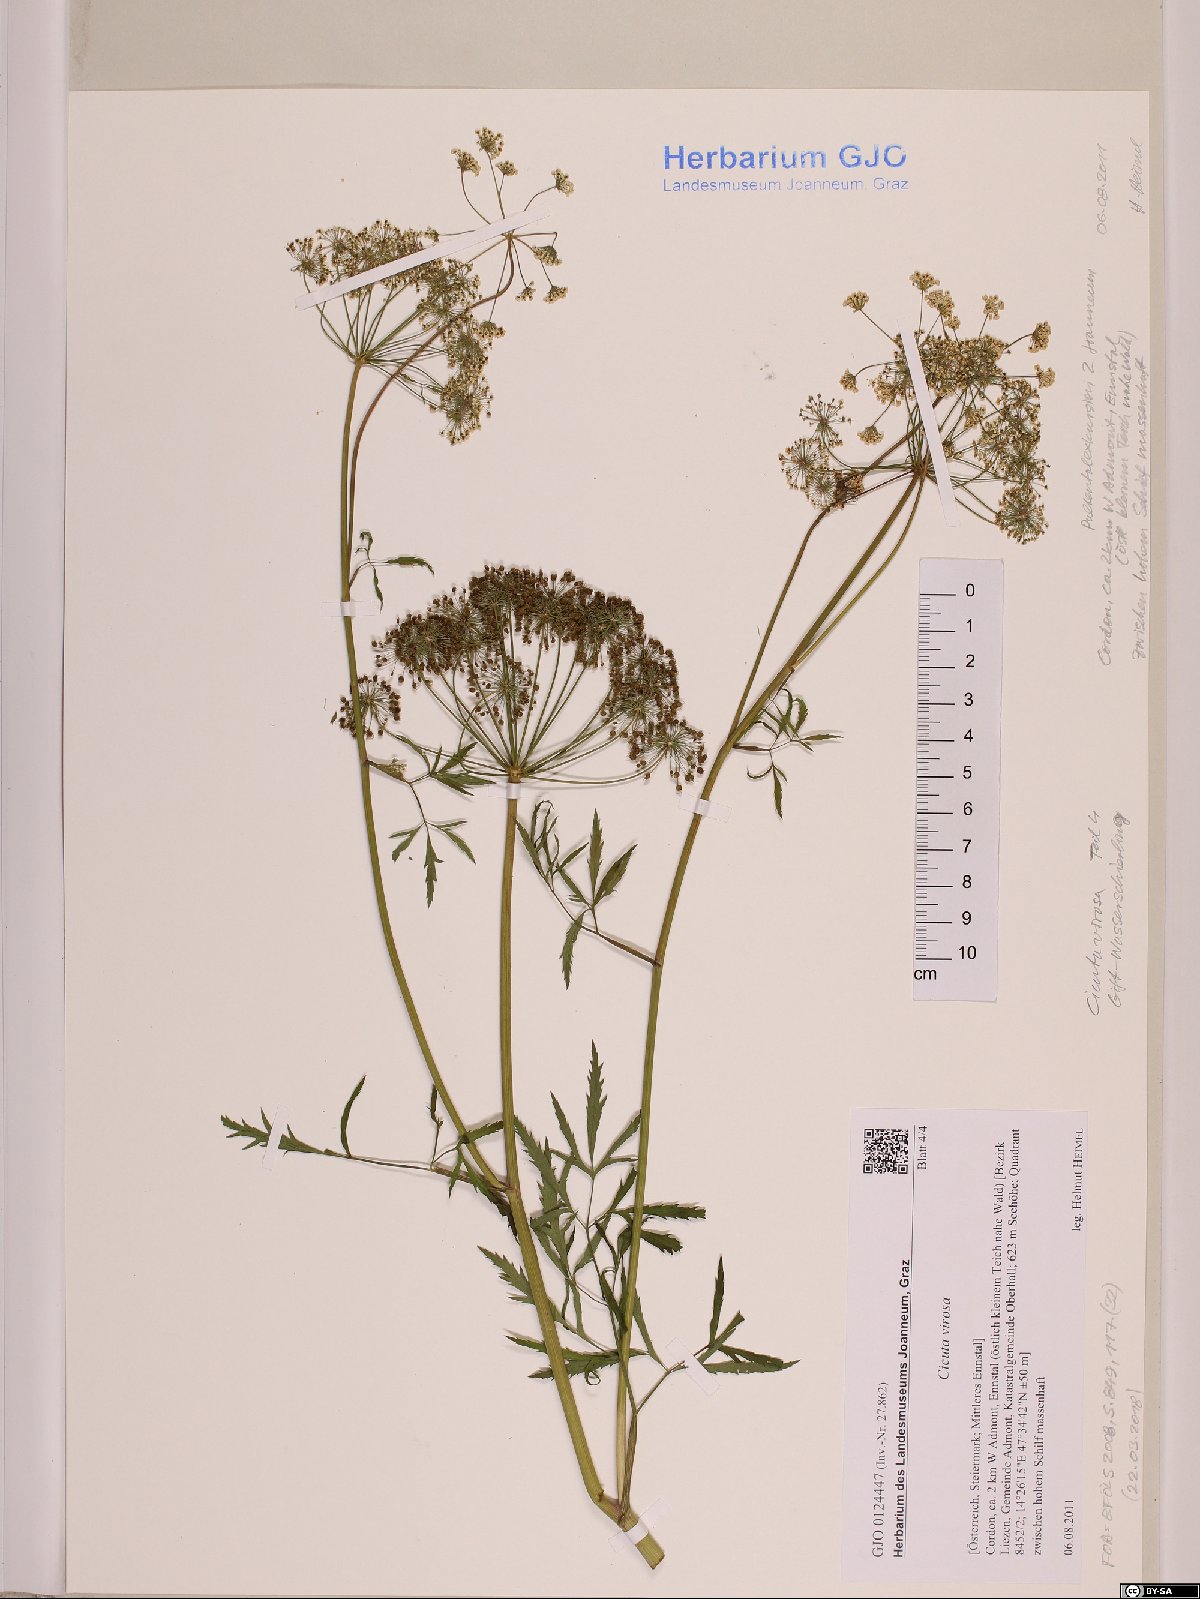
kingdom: Plantae
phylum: Tracheophyta
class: Magnoliopsida
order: Apiales
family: Apiaceae
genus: Cicuta
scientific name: Cicuta virosa
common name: Cowbane
